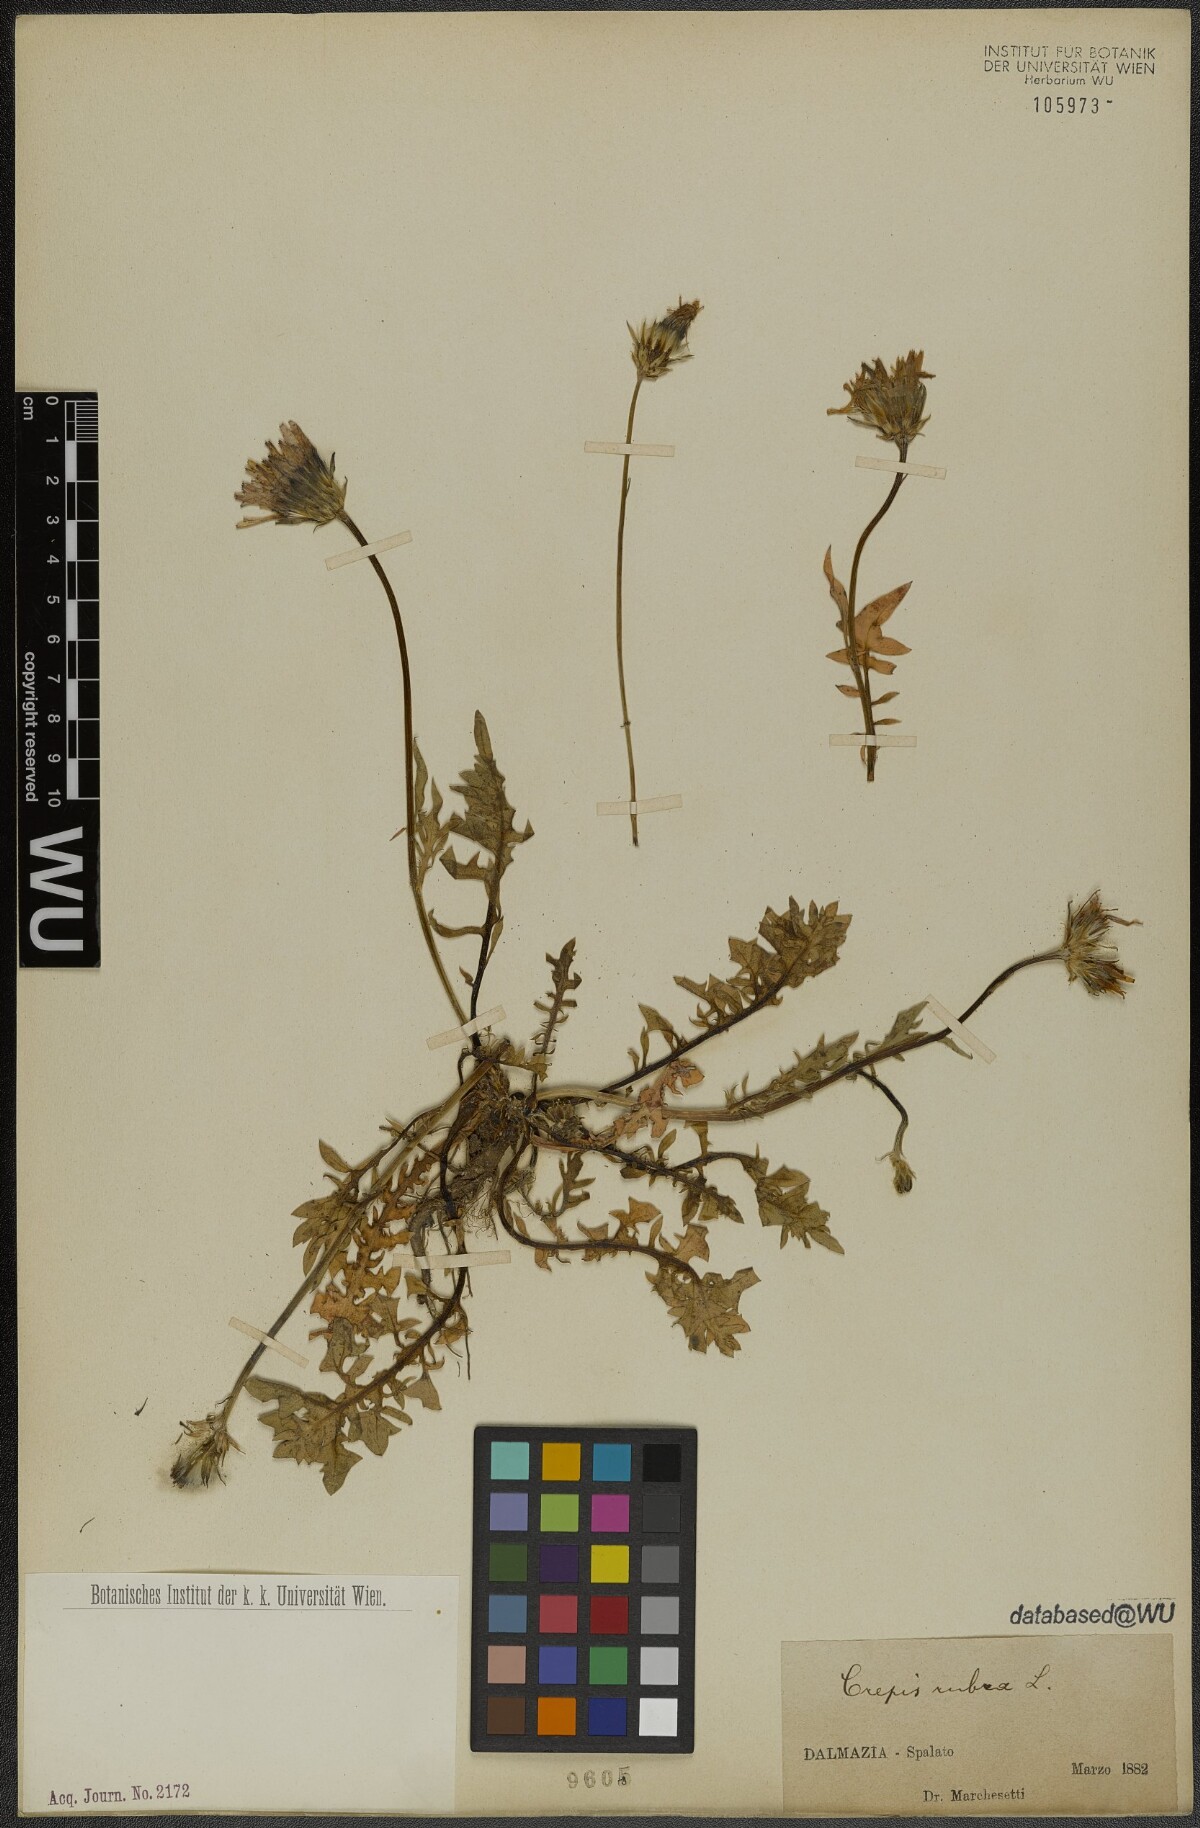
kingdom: Plantae
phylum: Tracheophyta
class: Magnoliopsida
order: Asterales
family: Asteraceae
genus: Crepis
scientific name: Crepis rubra
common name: Pink hawk's-beard
